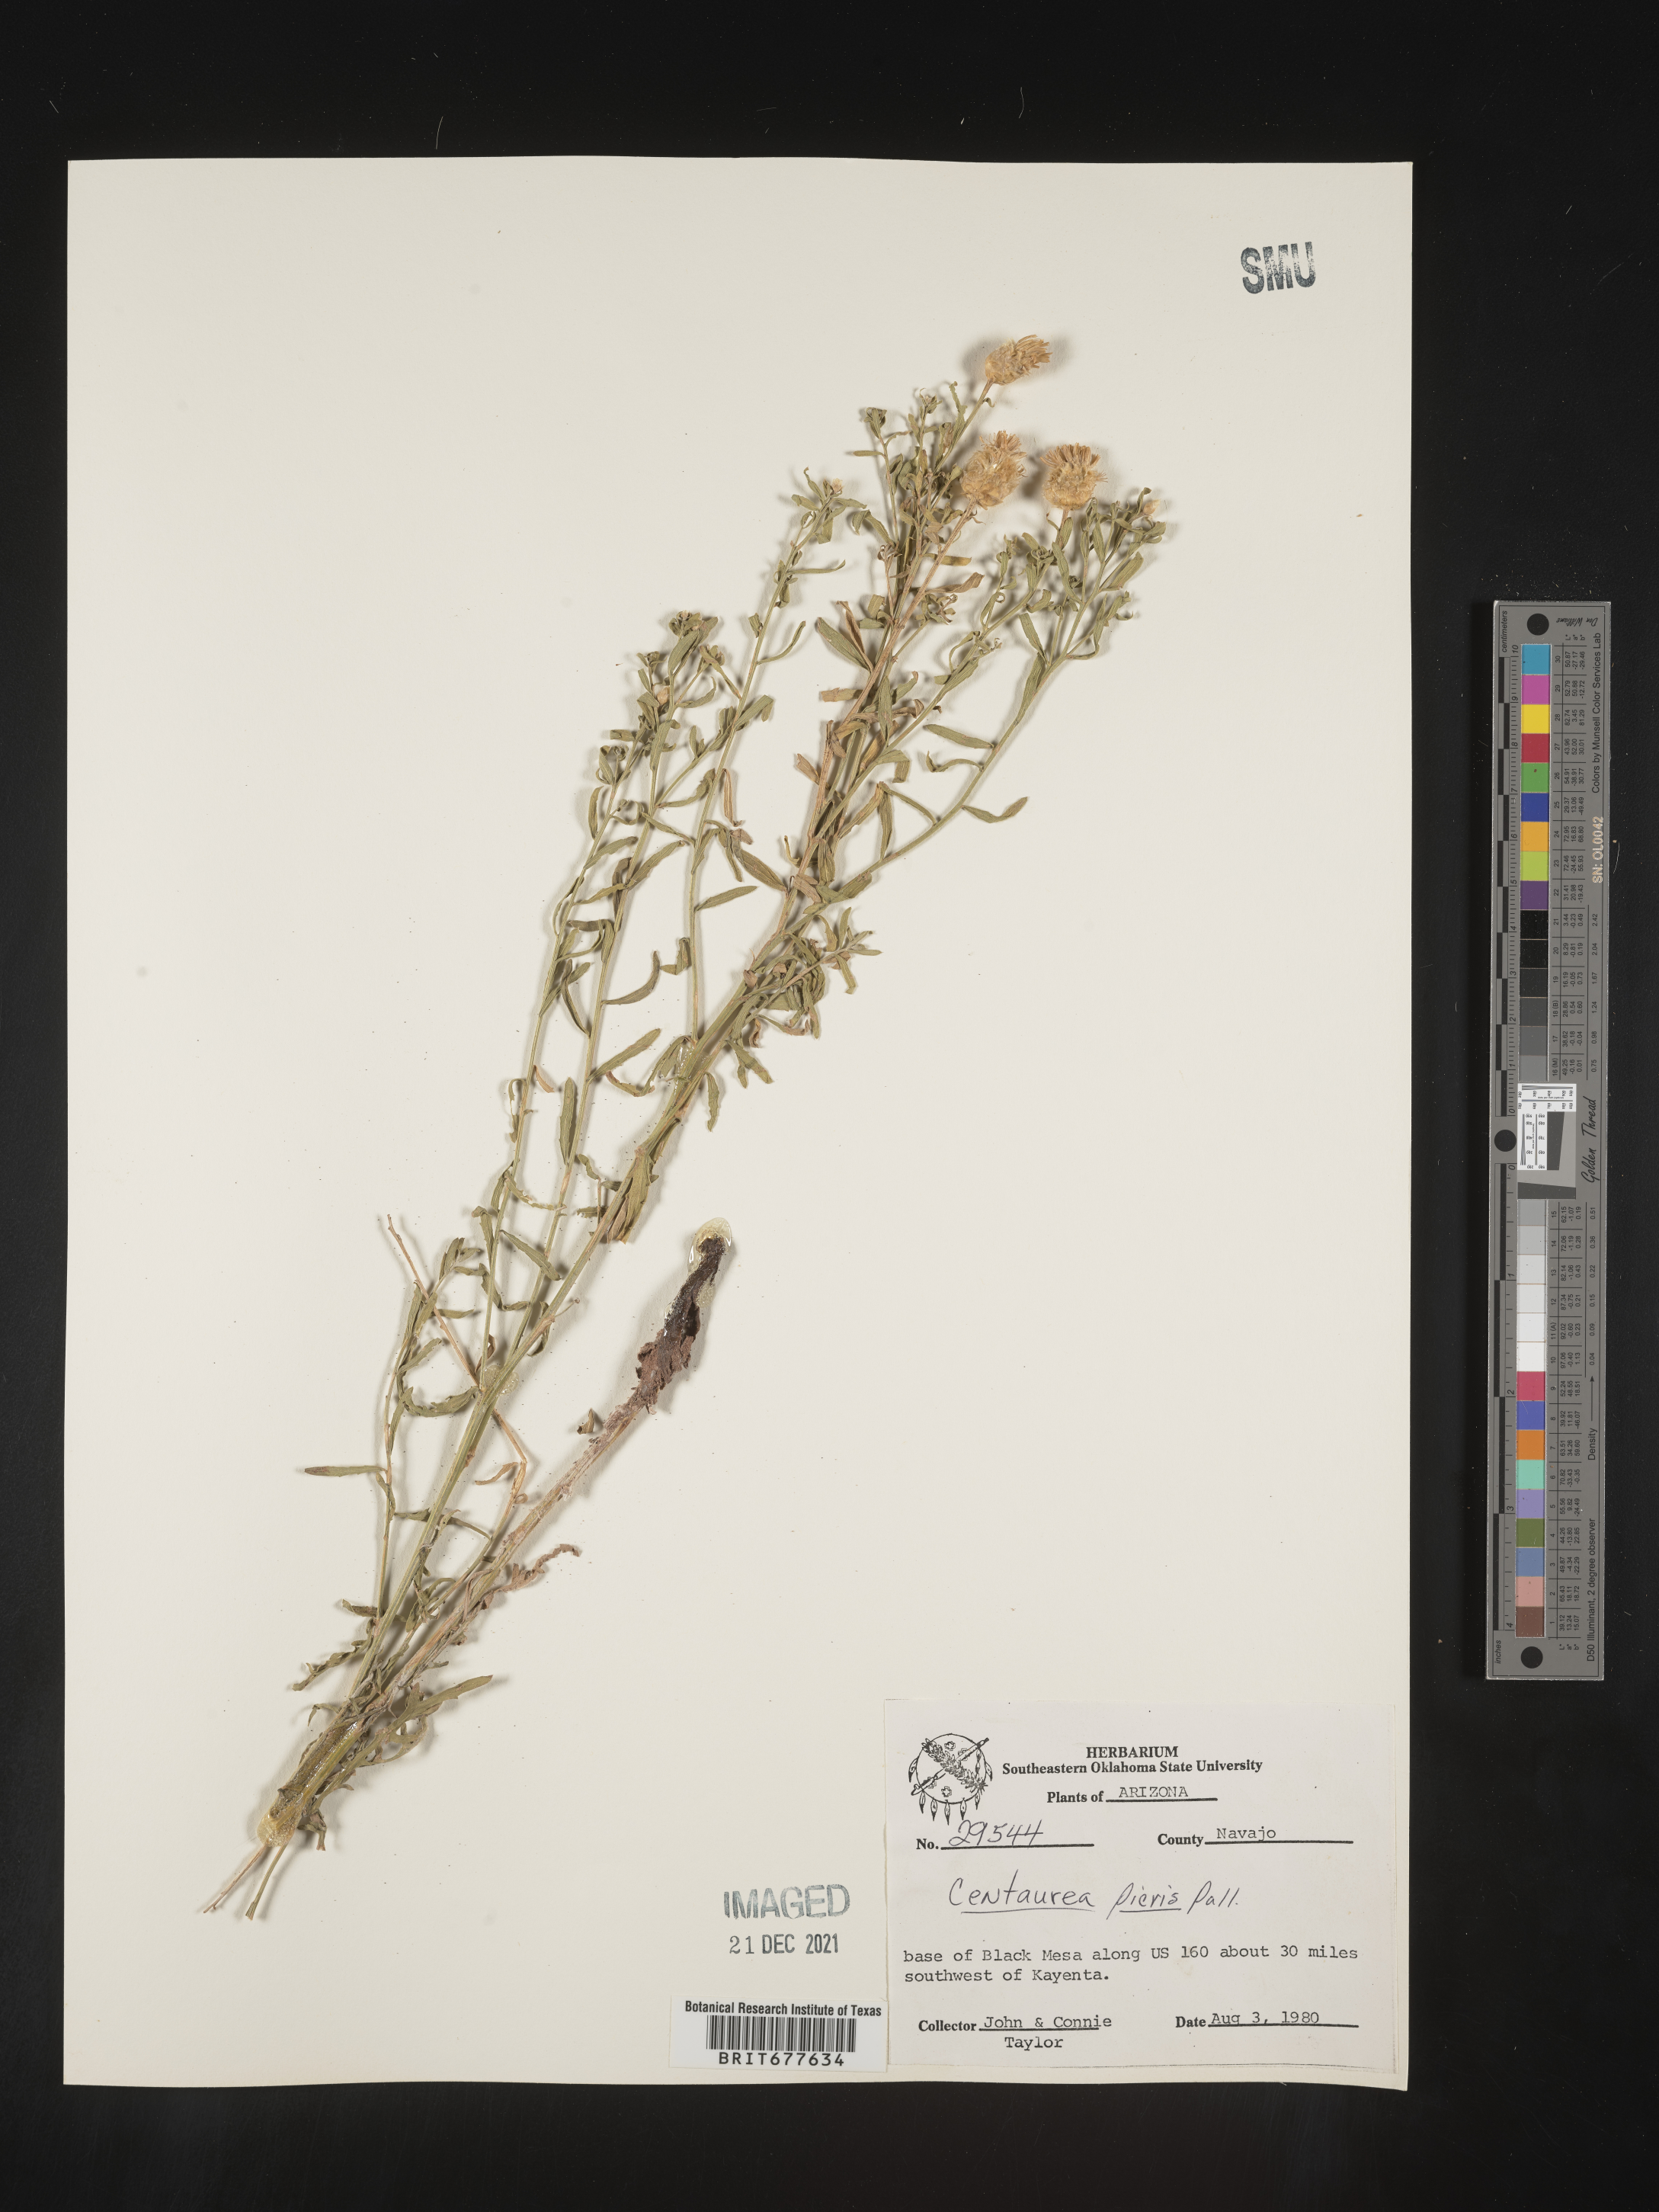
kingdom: Plantae
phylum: Tracheophyta
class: Magnoliopsida
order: Asterales
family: Asteraceae
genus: Leuzea
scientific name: Leuzea repens
